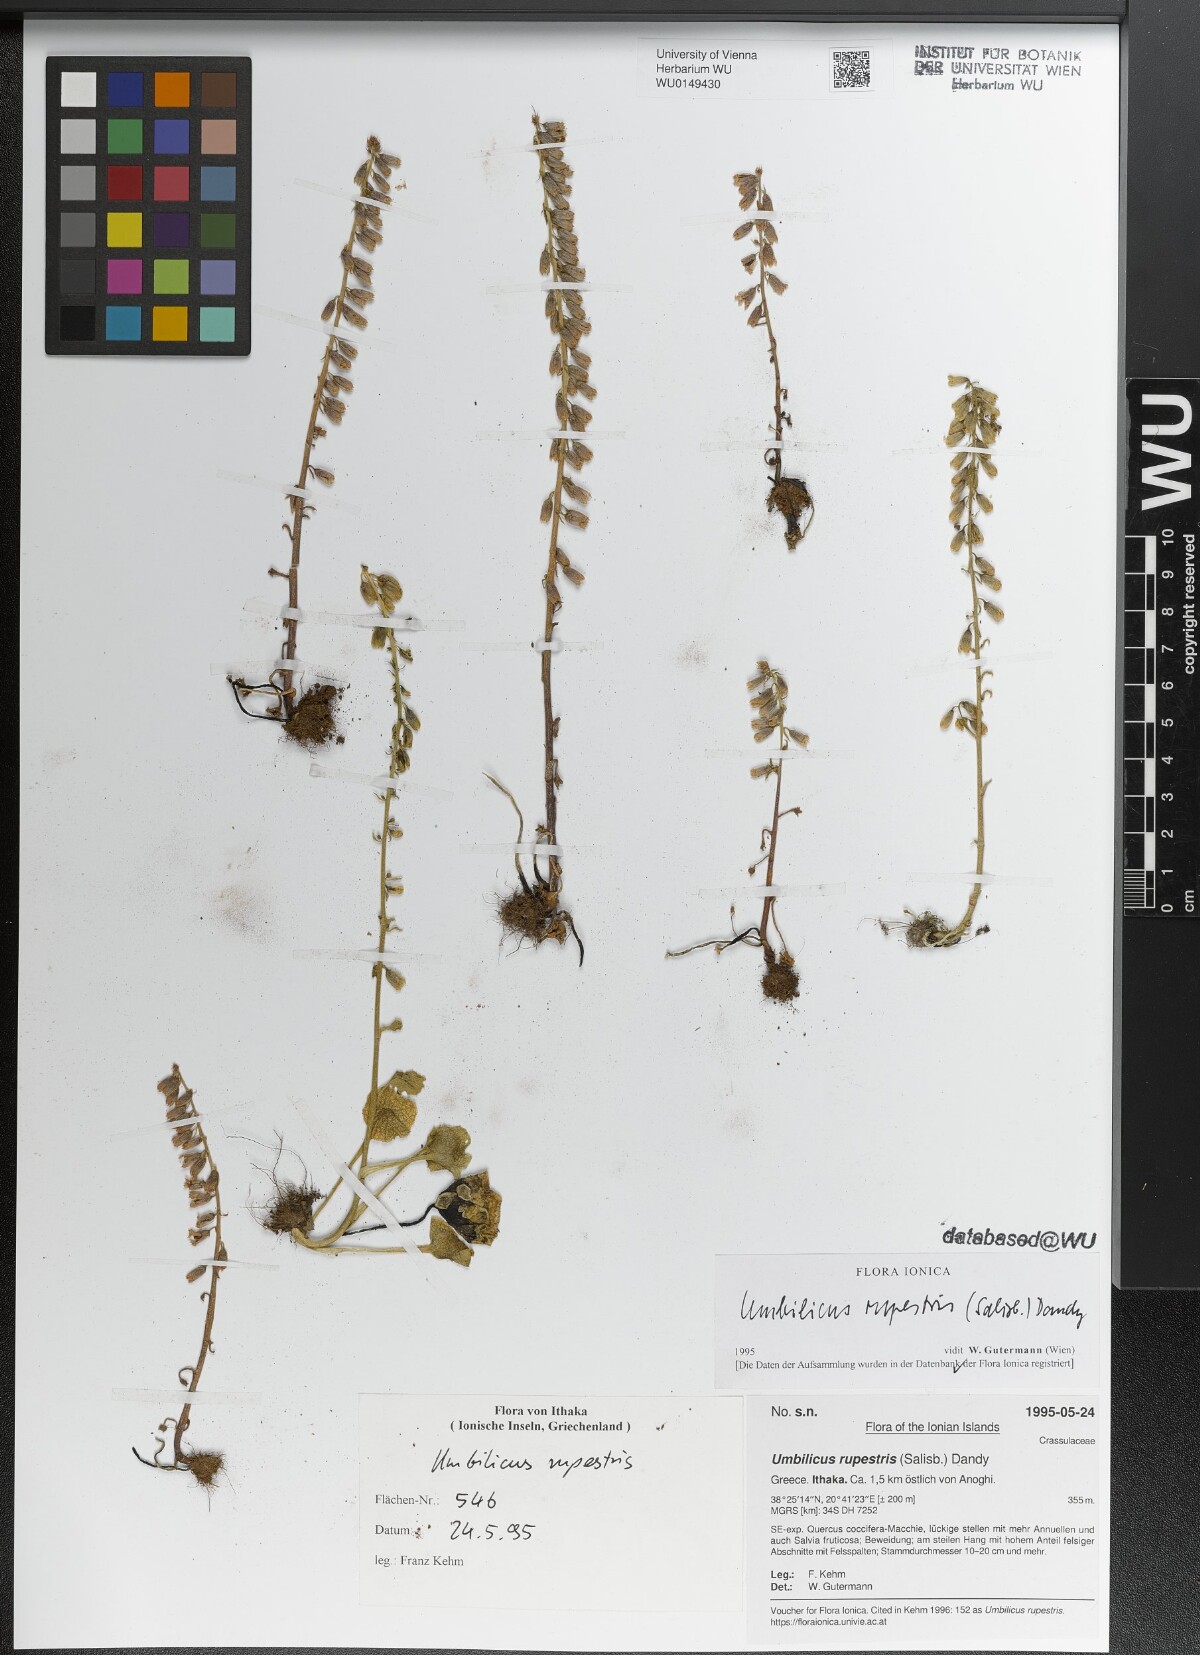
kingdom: Plantae
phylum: Tracheophyta
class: Magnoliopsida
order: Saxifragales
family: Crassulaceae
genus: Umbilicus
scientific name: Umbilicus rupestris
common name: Navelwort
